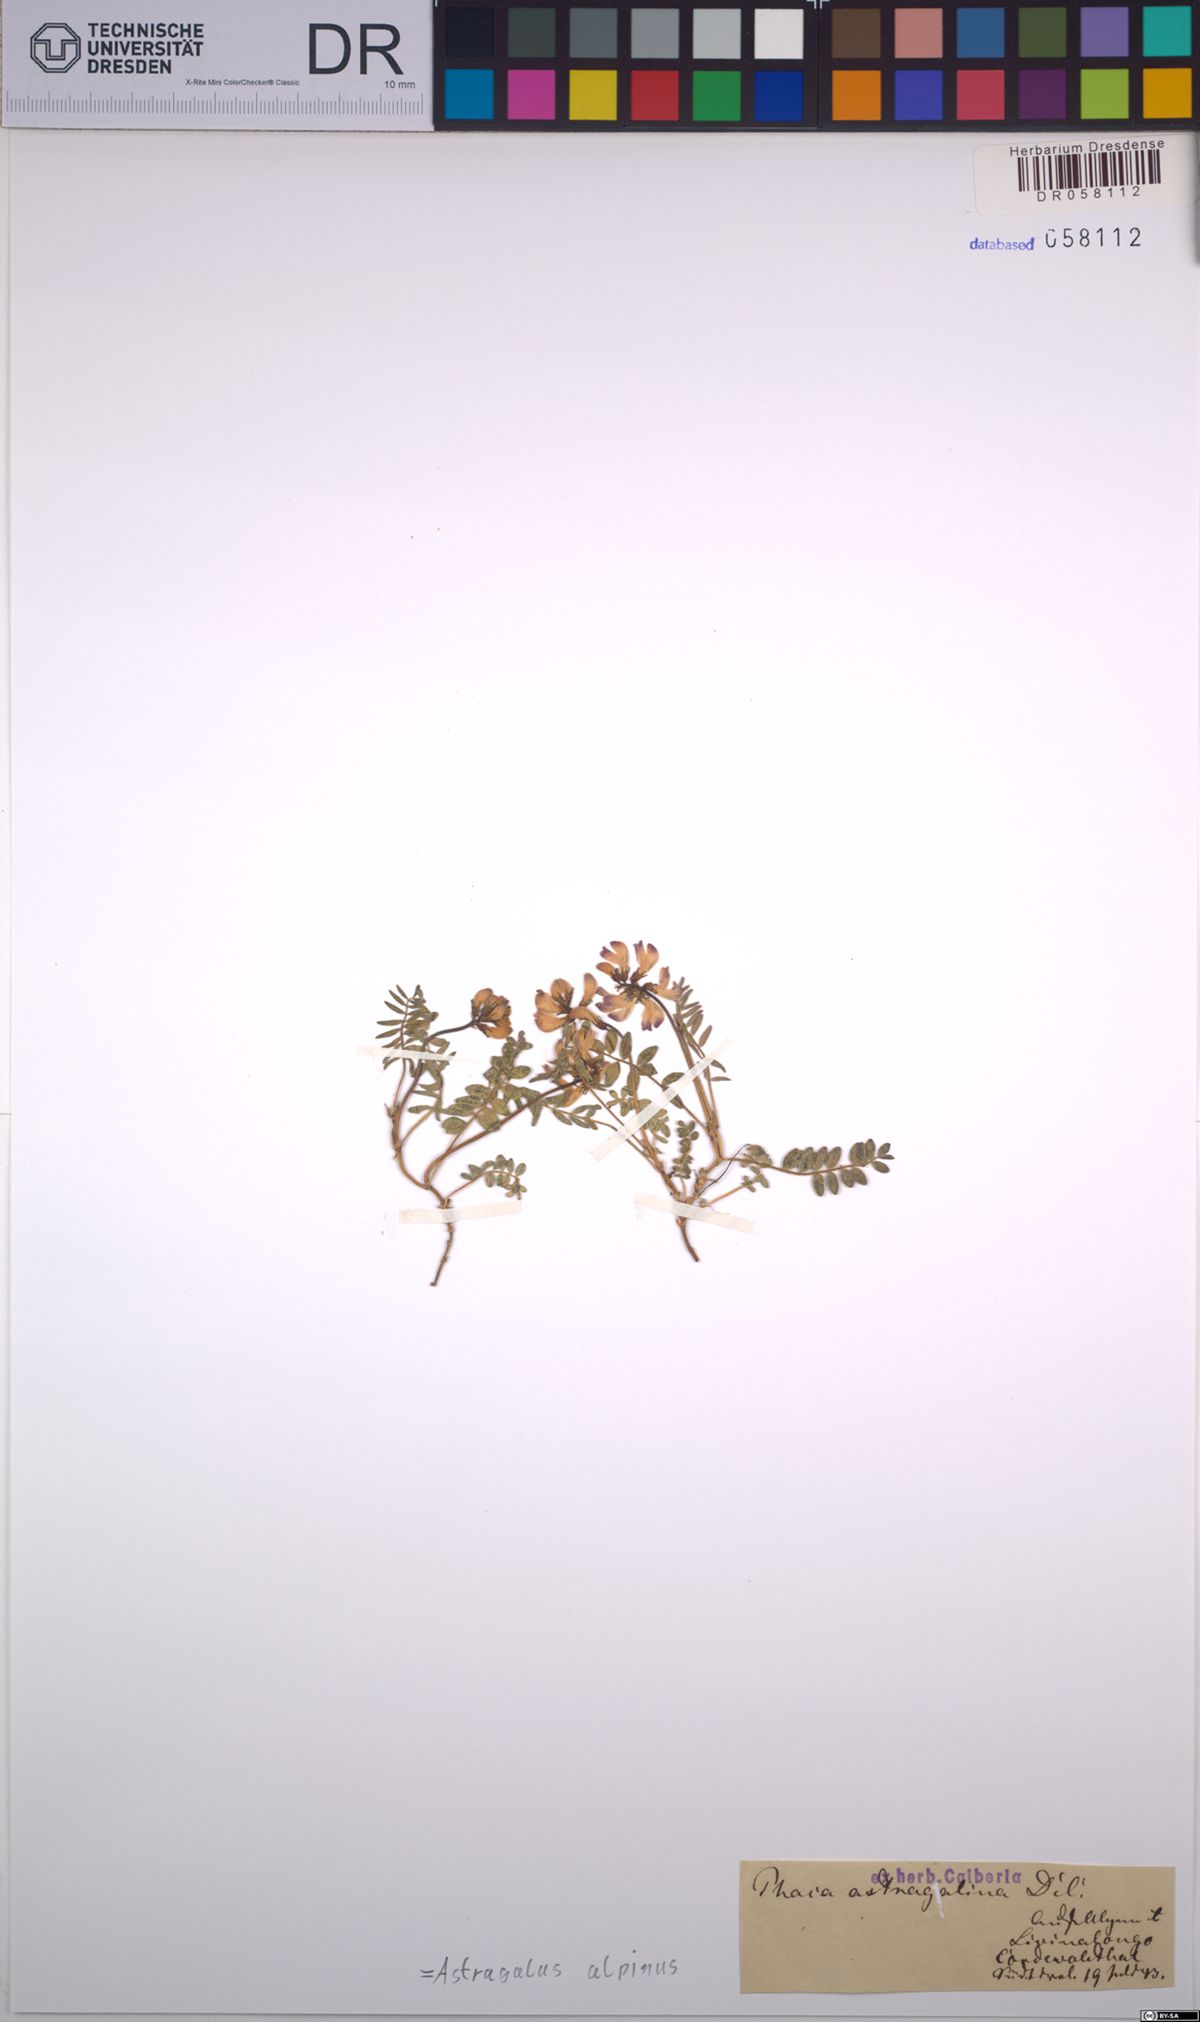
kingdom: Plantae
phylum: Tracheophyta
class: Magnoliopsida
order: Fabales
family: Fabaceae
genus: Astragalus
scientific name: Astragalus alpinus
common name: Alpine milk-vetch
